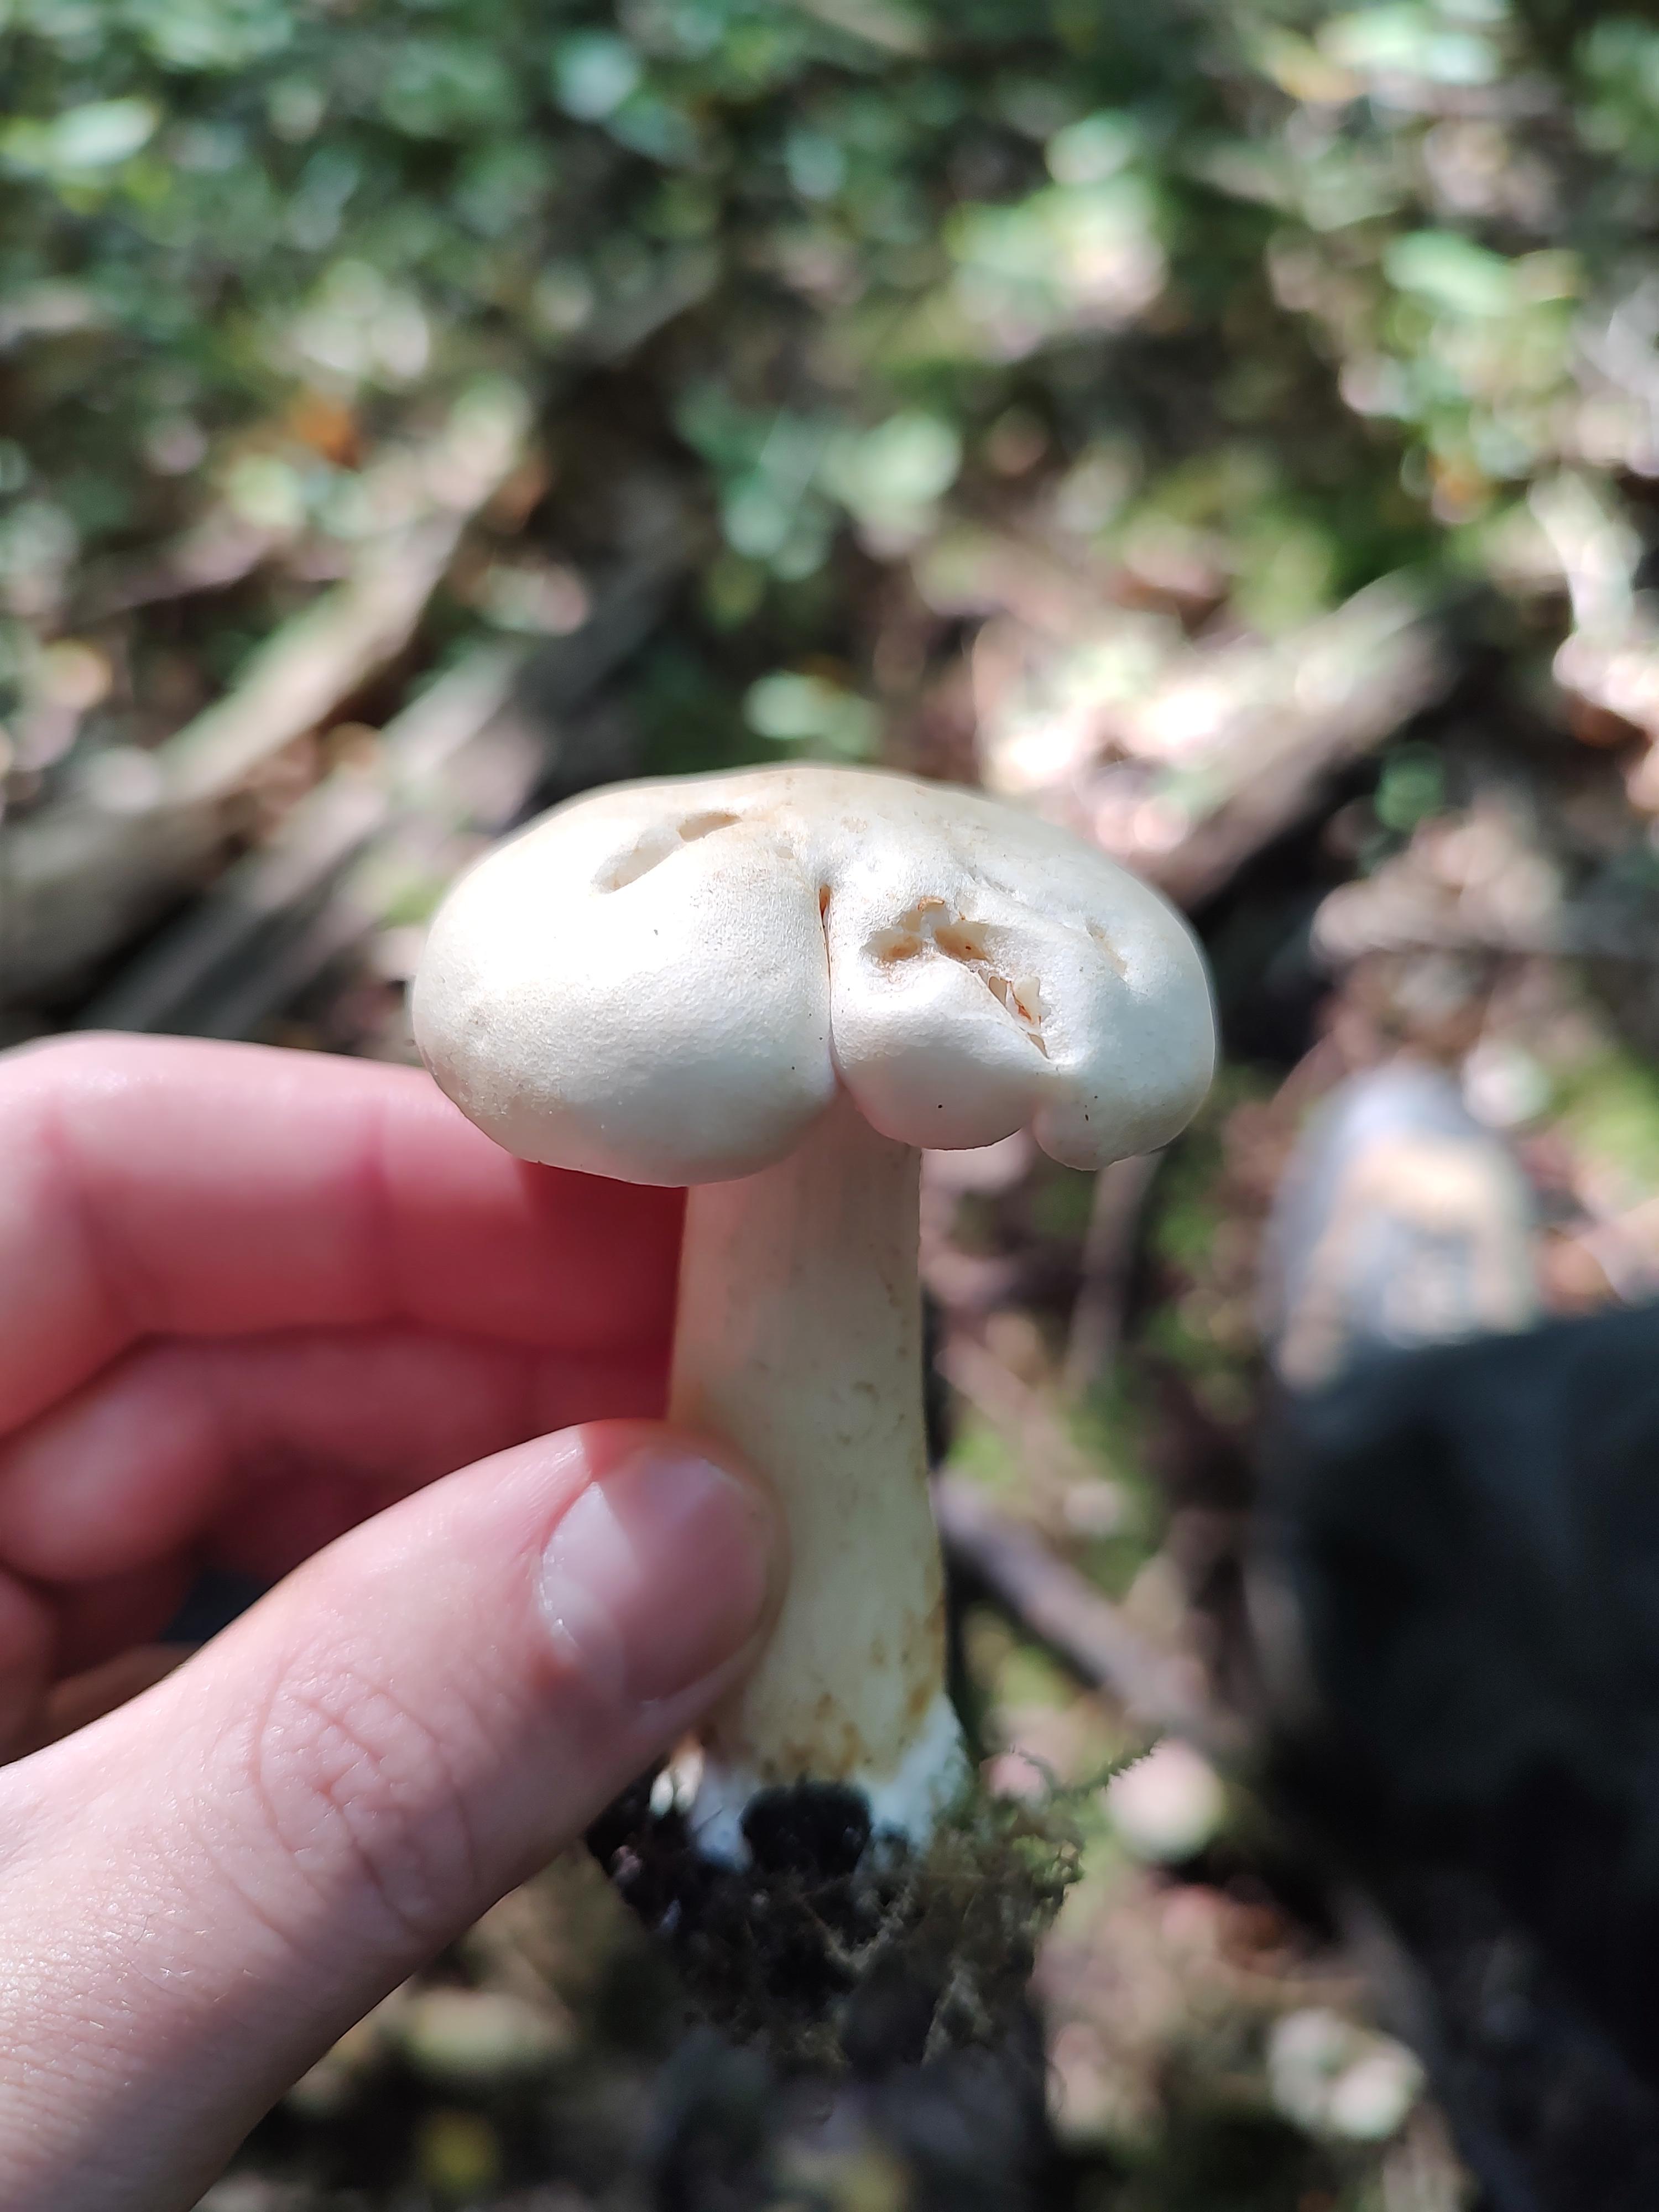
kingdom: Fungi
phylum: Basidiomycota
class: Agaricomycetes
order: Agaricales
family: Tricholomataceae
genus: Tricholoma
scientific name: Tricholoma
